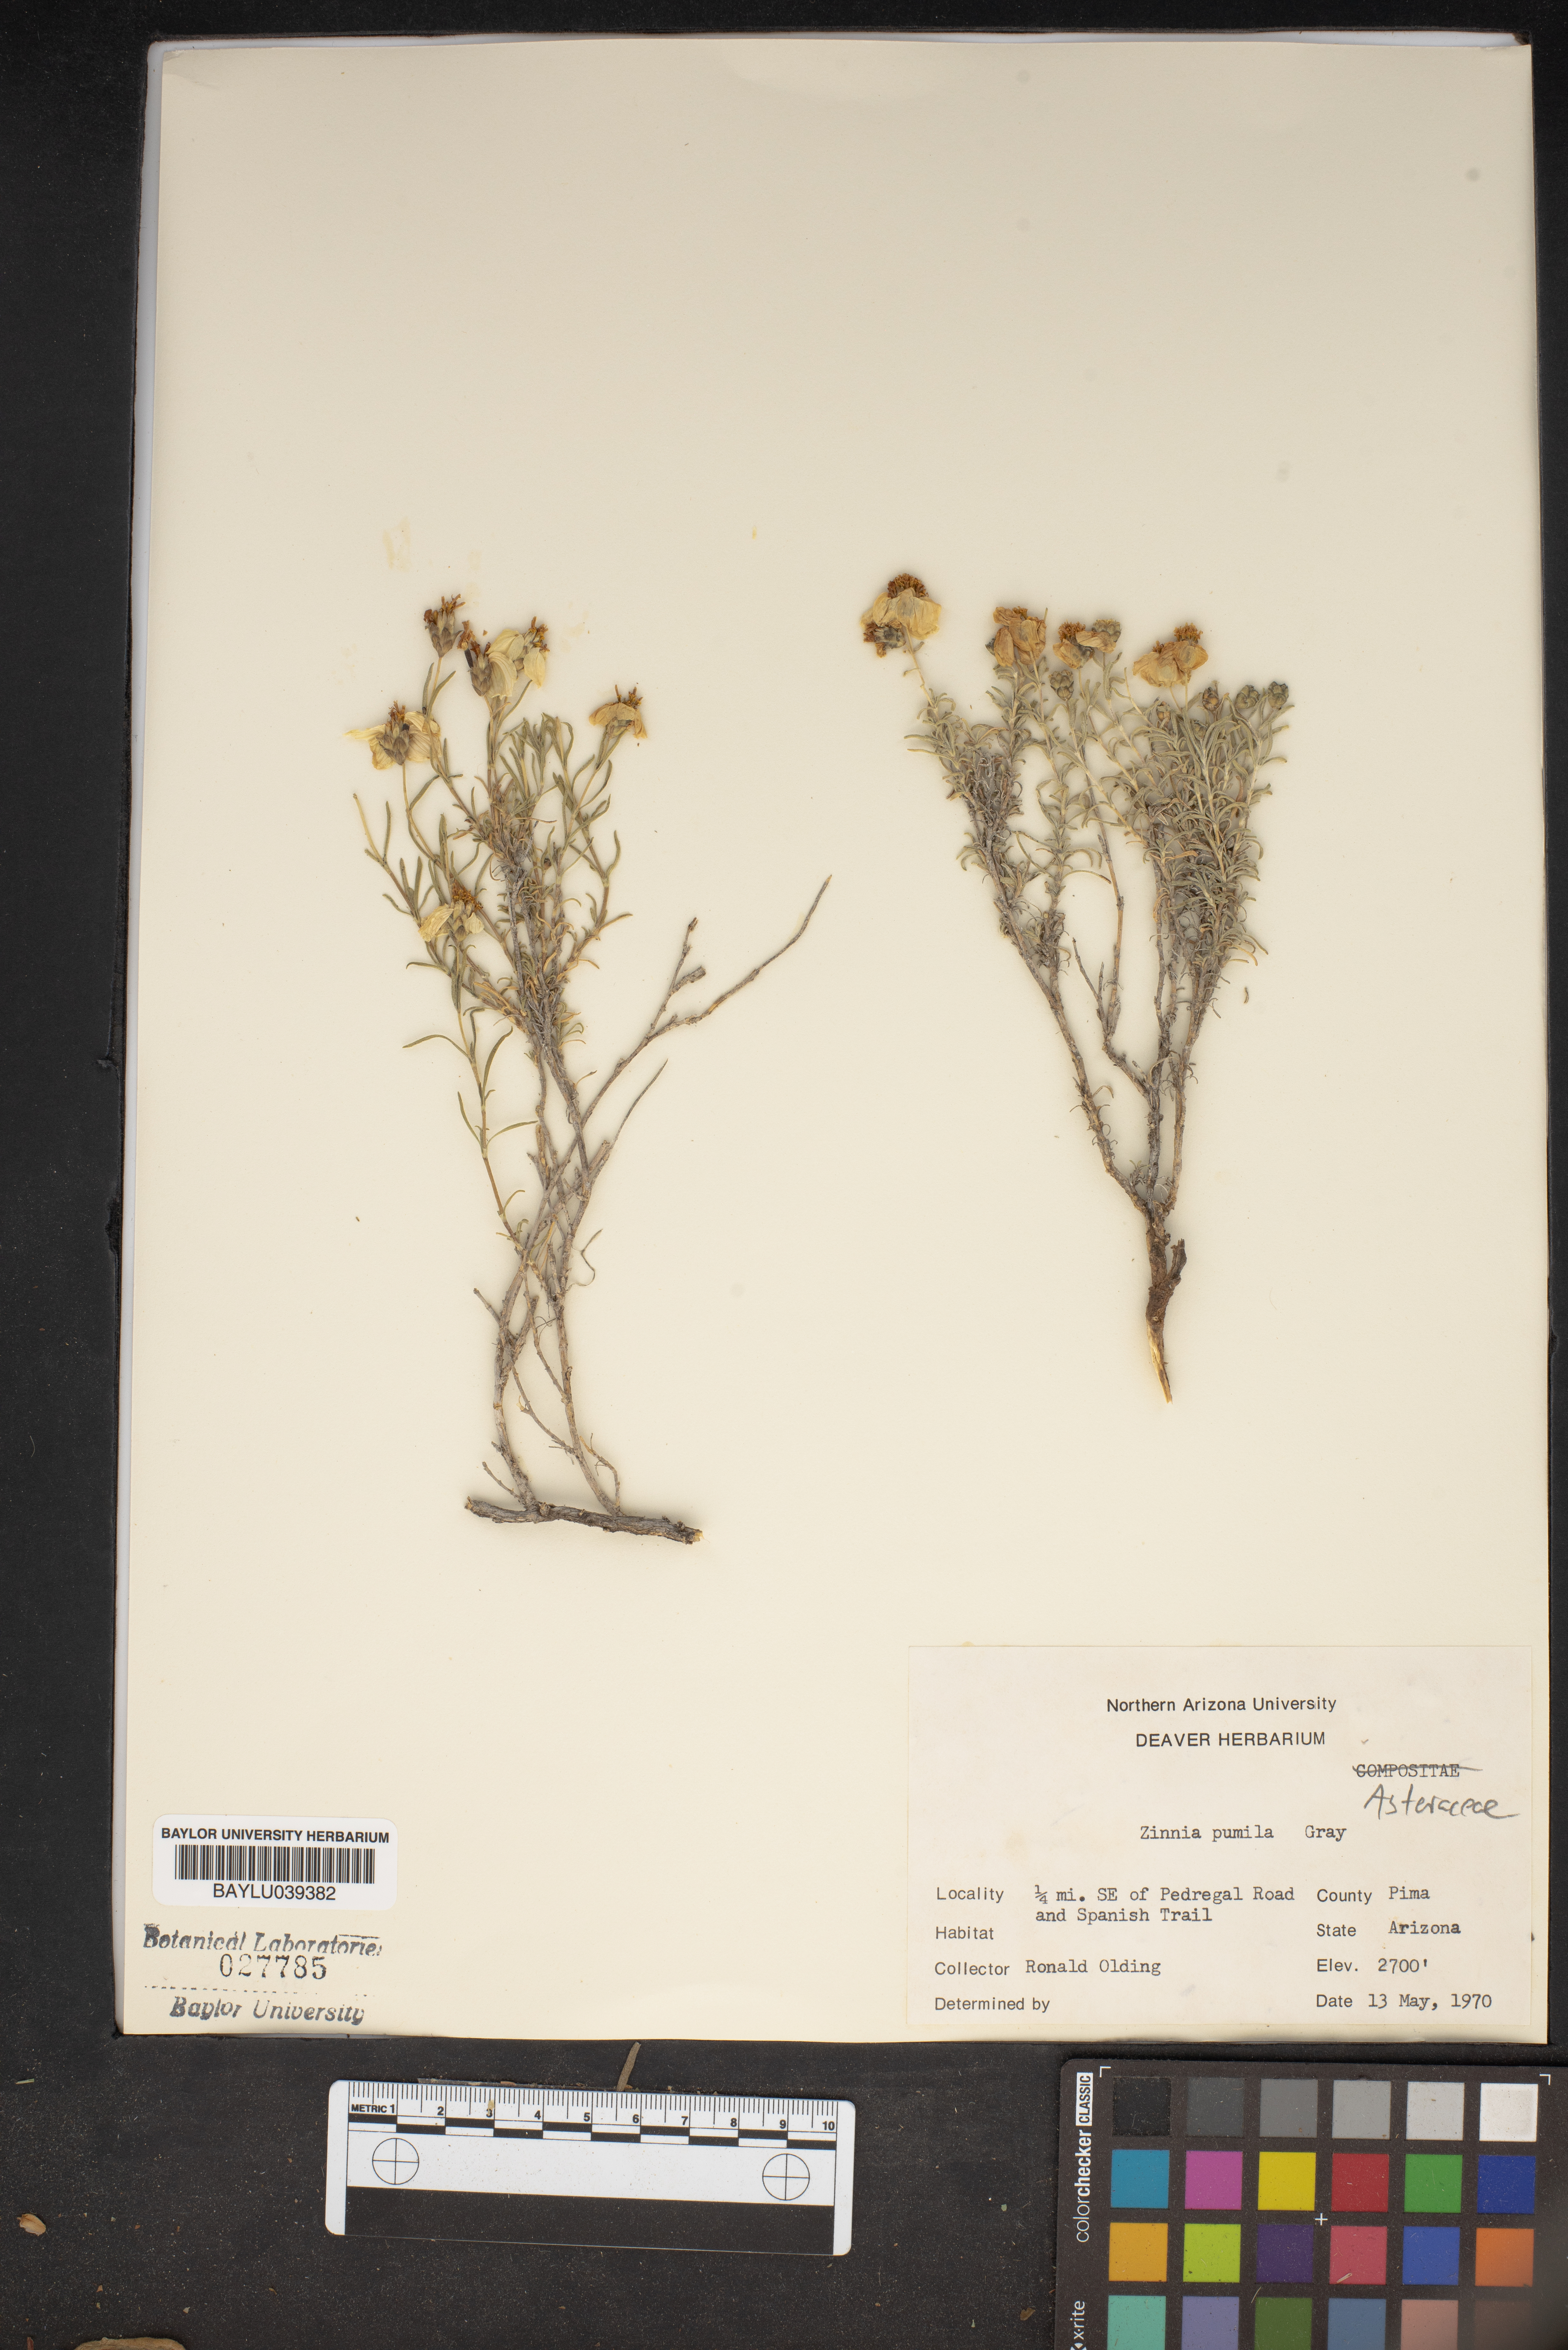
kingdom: Plantae
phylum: Tracheophyta
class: Magnoliopsida
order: Asterales
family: Asteraceae
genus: Zinnia
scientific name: Zinnia acerosa
